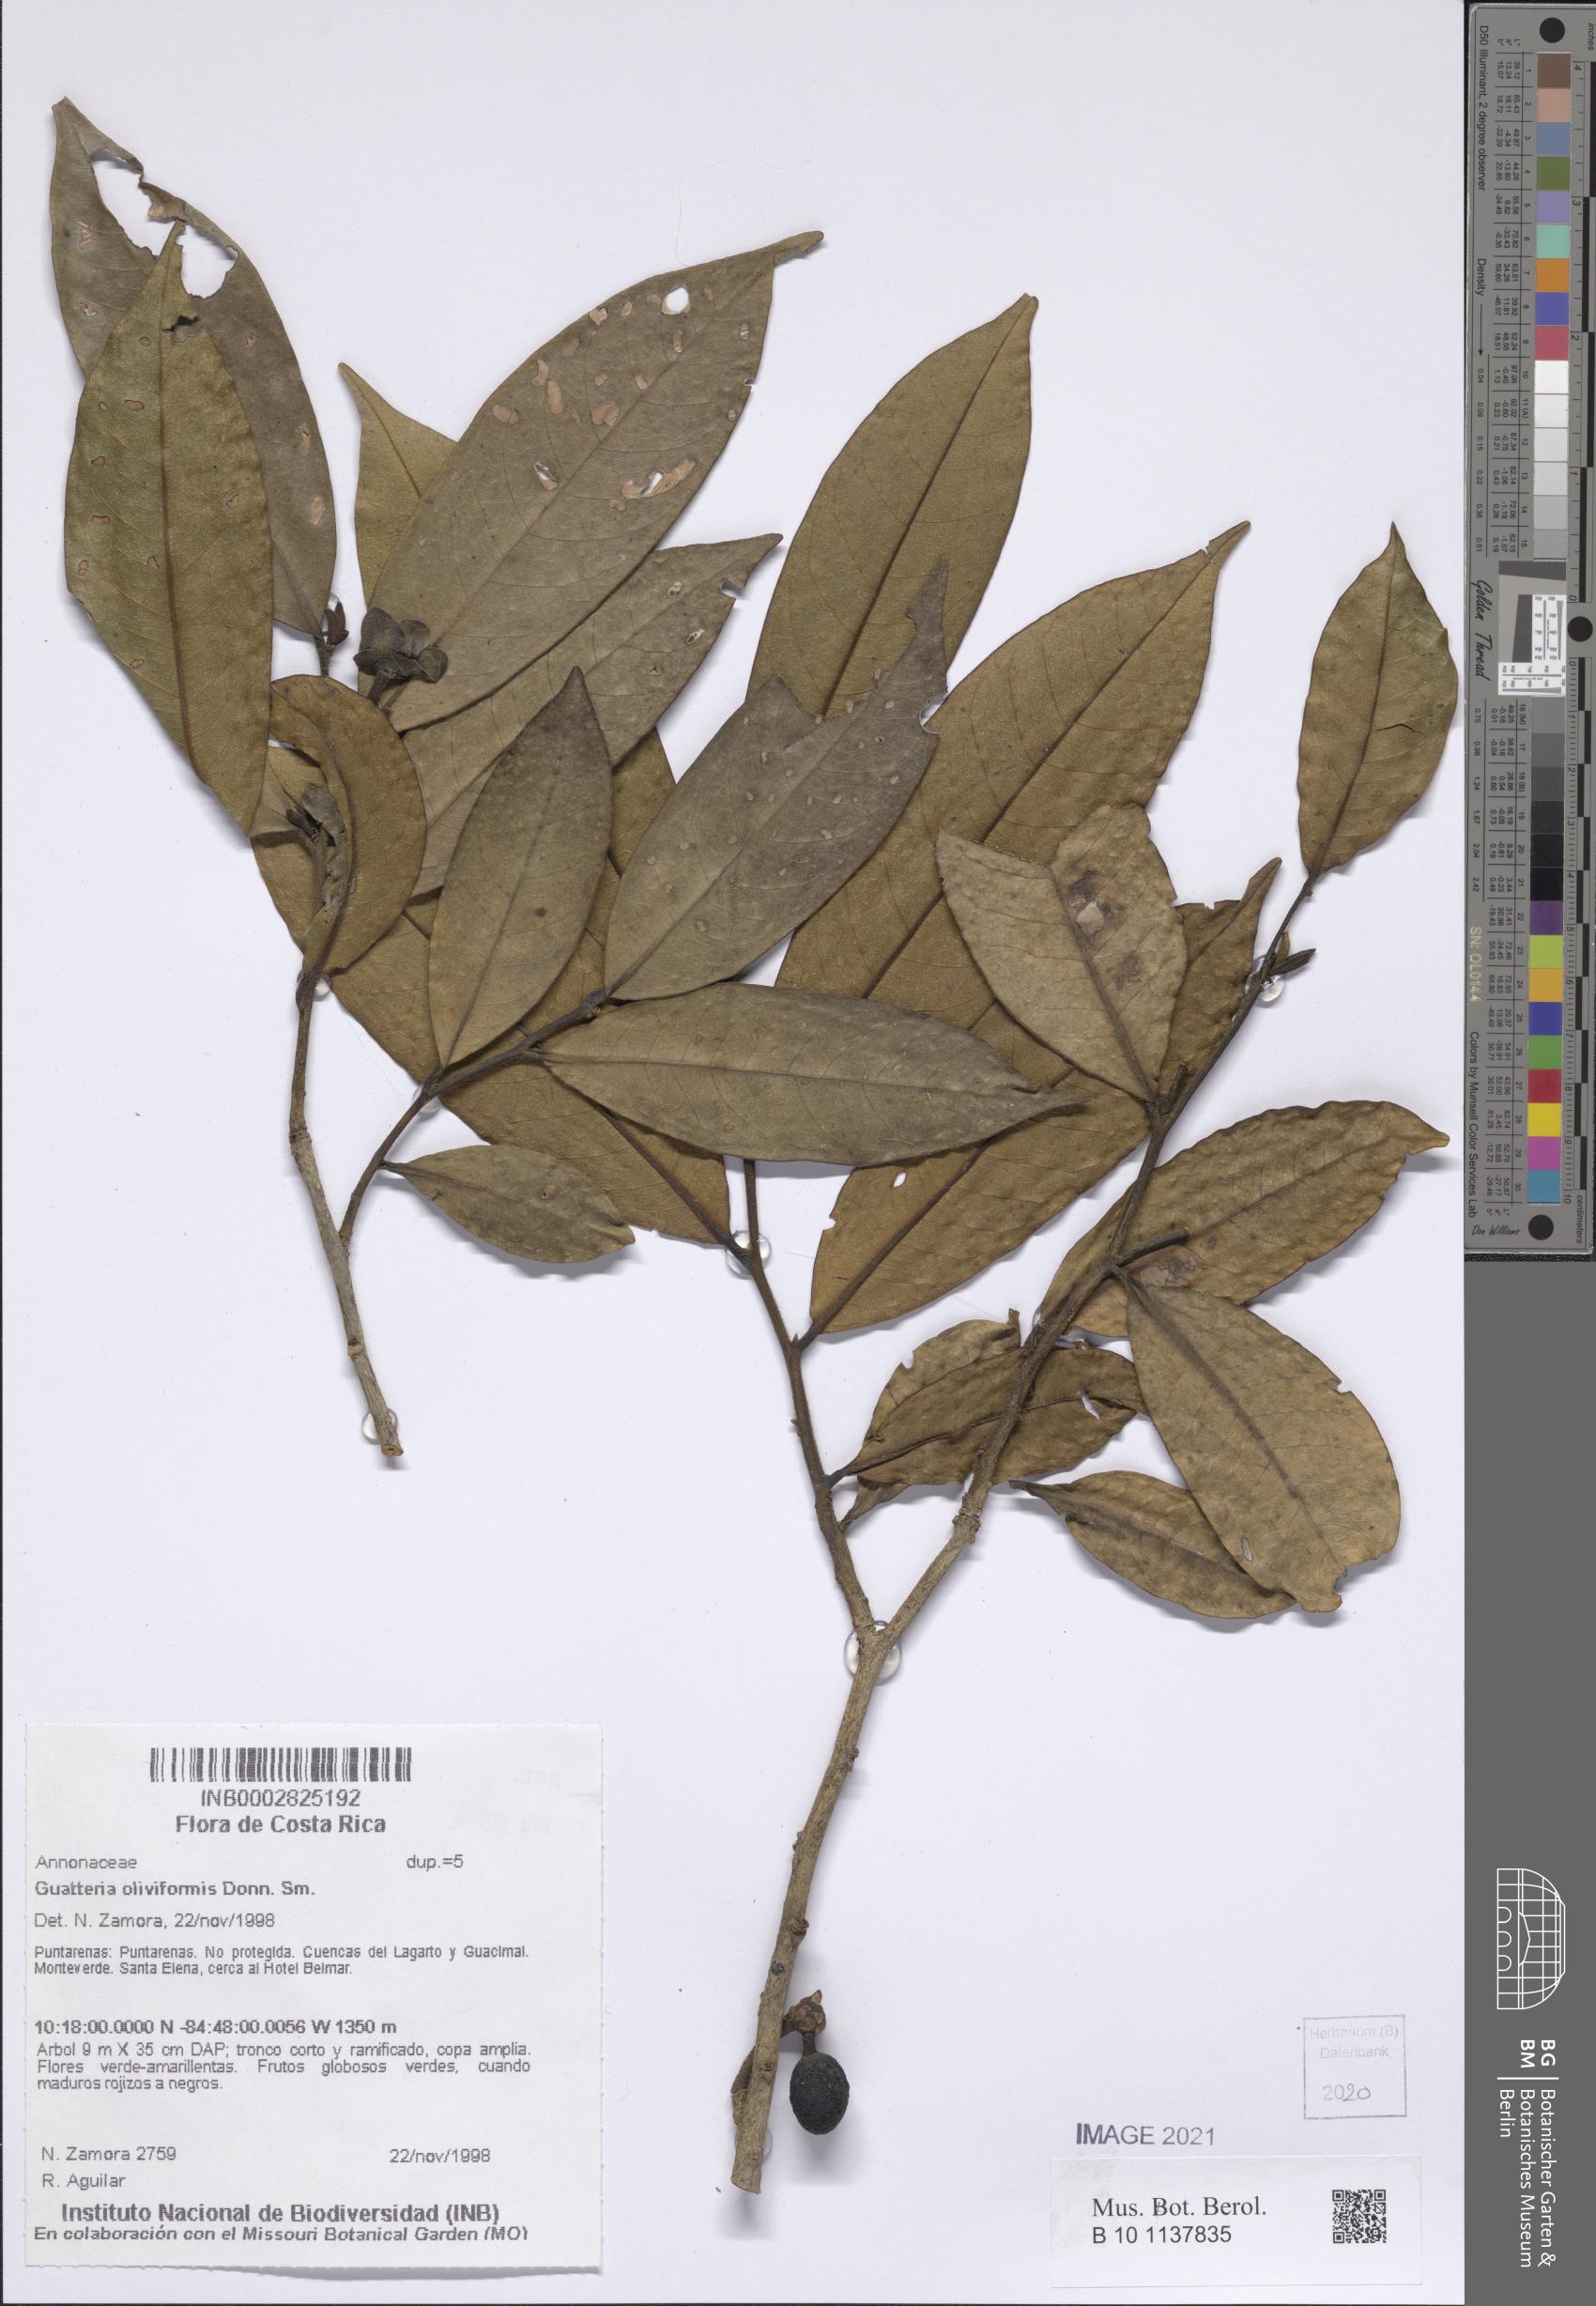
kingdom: Plantae
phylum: Tracheophyta
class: Magnoliopsida
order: Magnoliales
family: Annonaceae
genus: Guatteria
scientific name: Guatteria oliviformis
